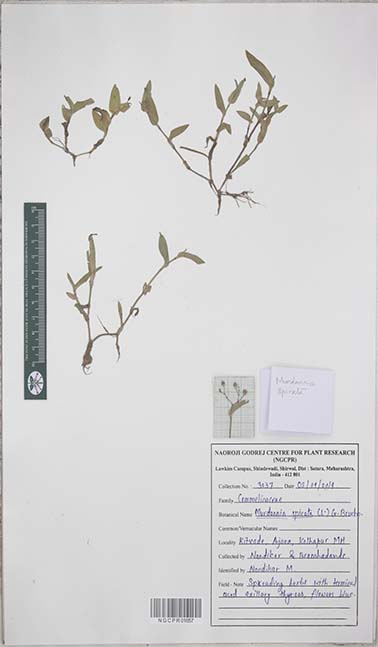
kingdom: Plantae
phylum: Tracheophyta
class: Liliopsida
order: Commelinales
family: Commelinaceae
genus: Murdannia
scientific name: Murdannia spirata
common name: Asiatic dewflower
